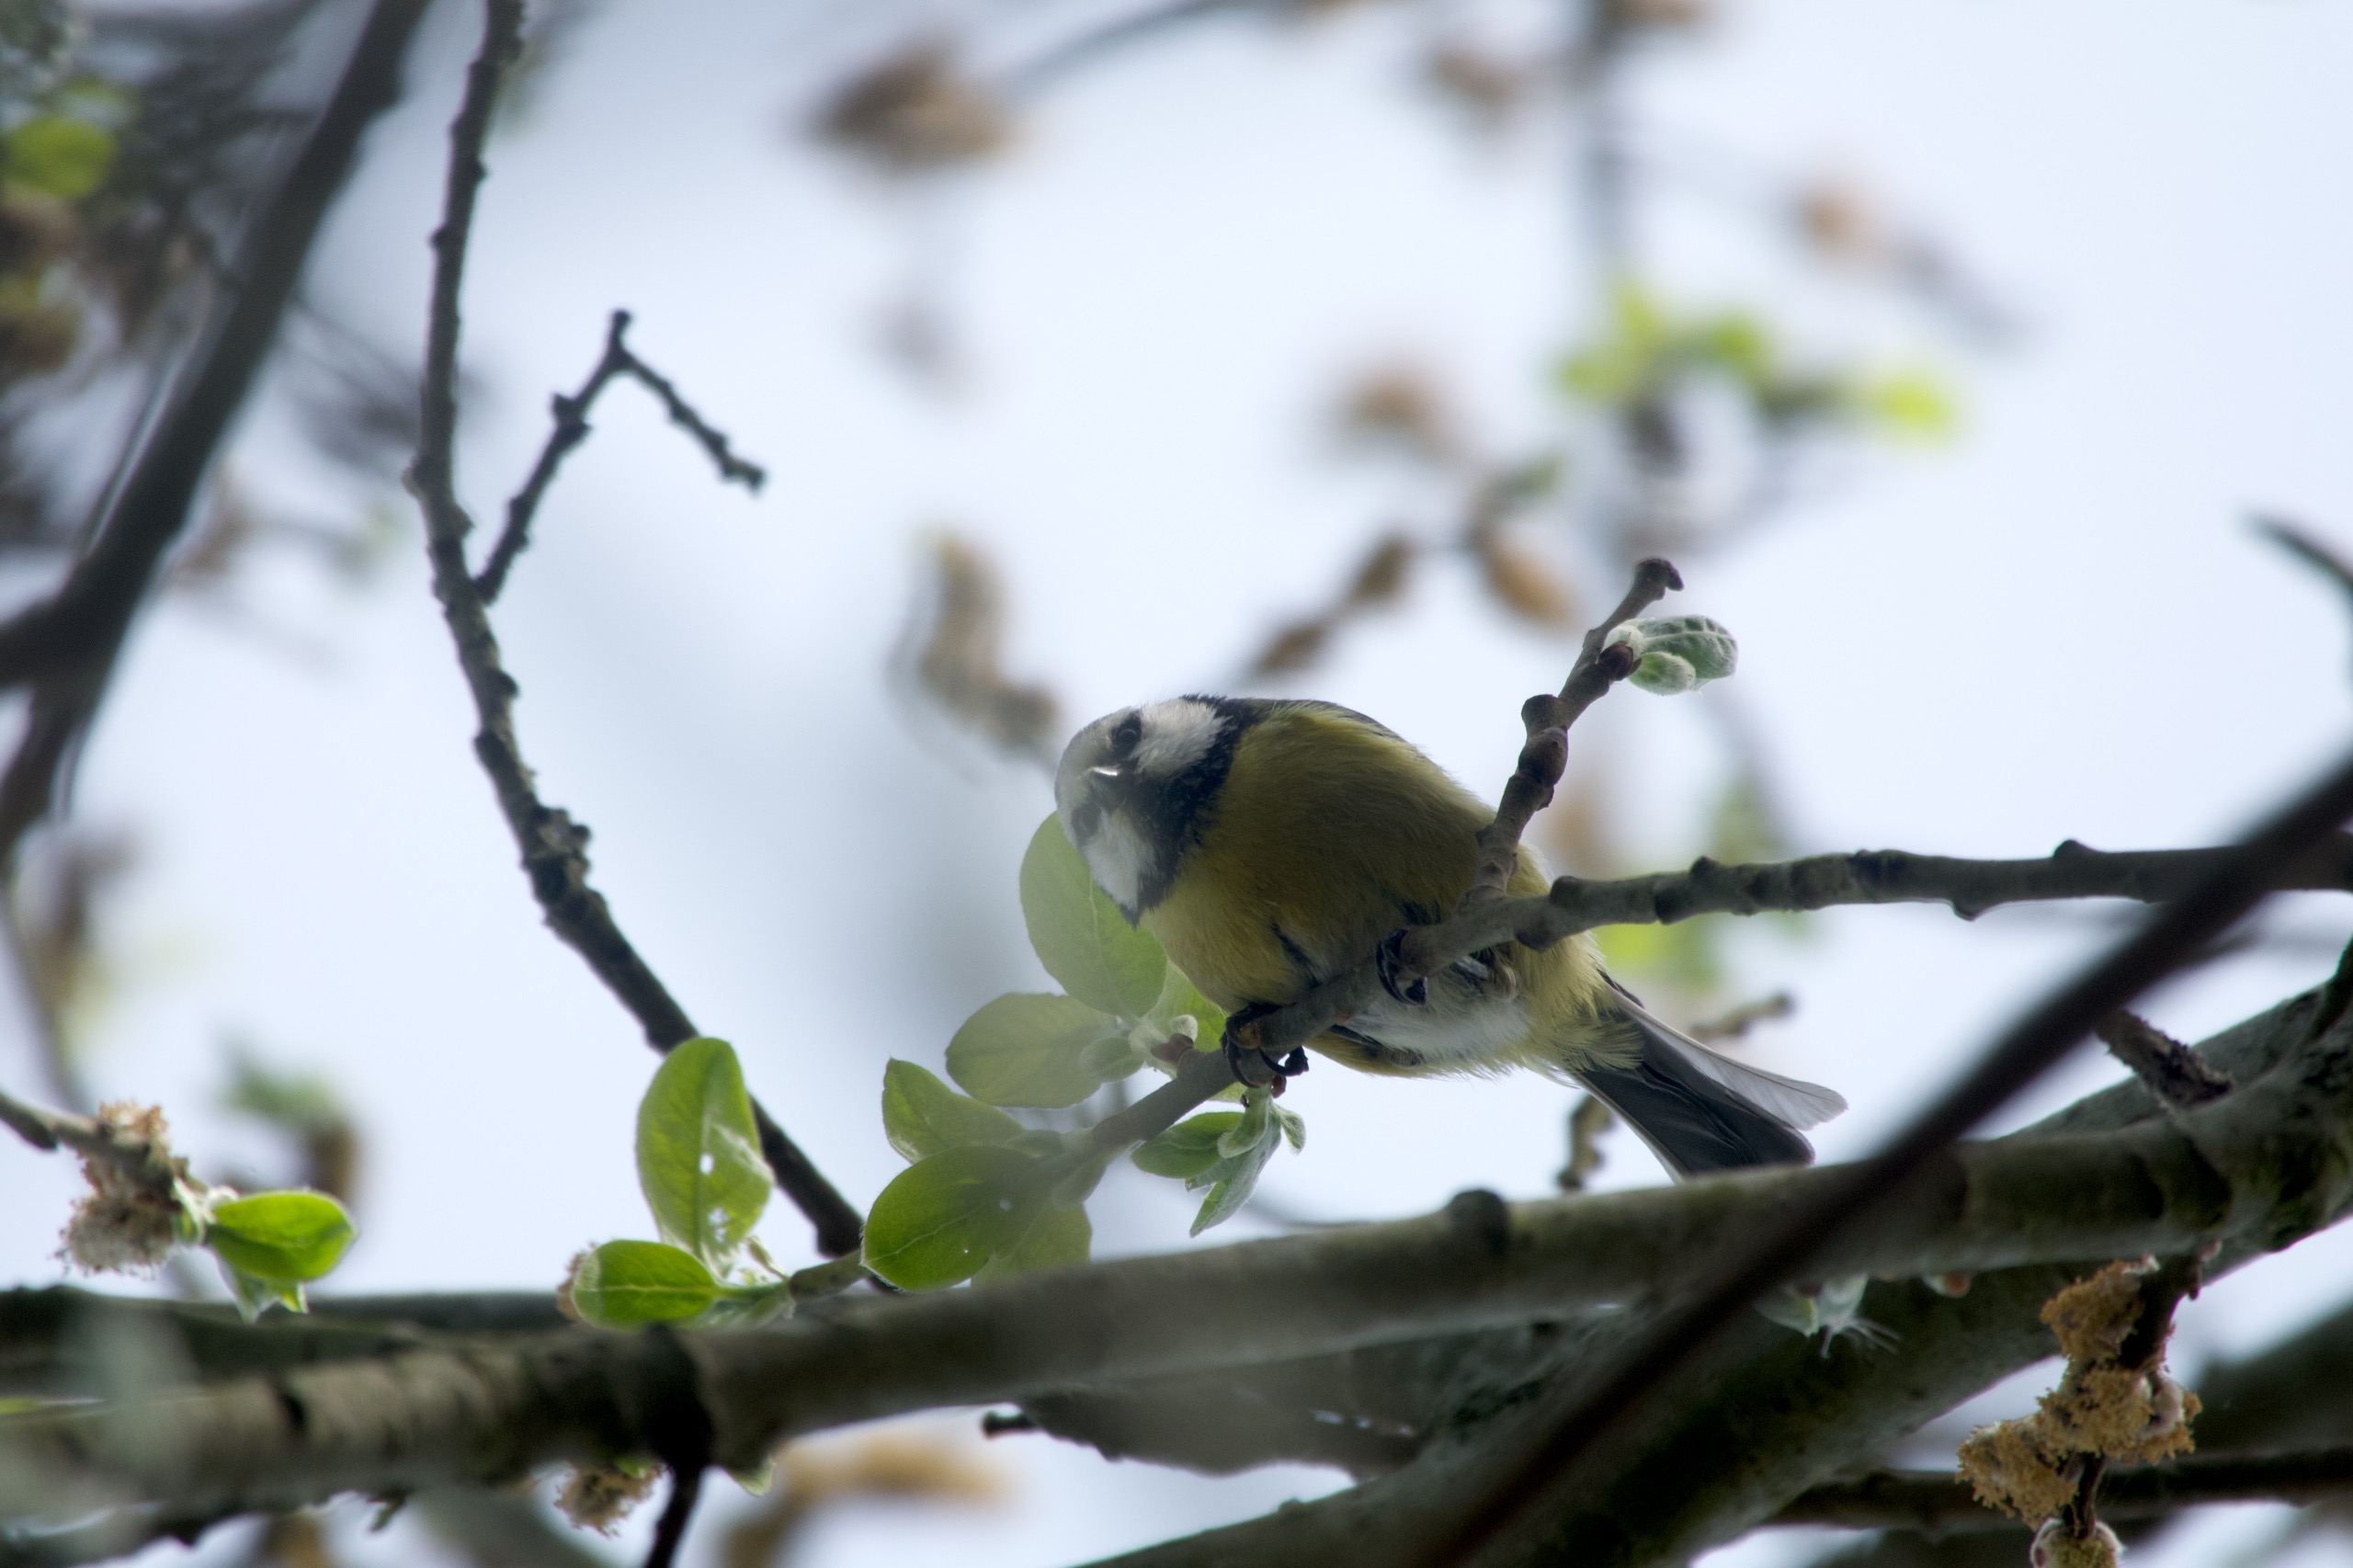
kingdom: Animalia
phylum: Chordata
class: Aves
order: Passeriformes
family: Paridae
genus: Cyanistes
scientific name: Cyanistes caeruleus
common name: Blåmejse
